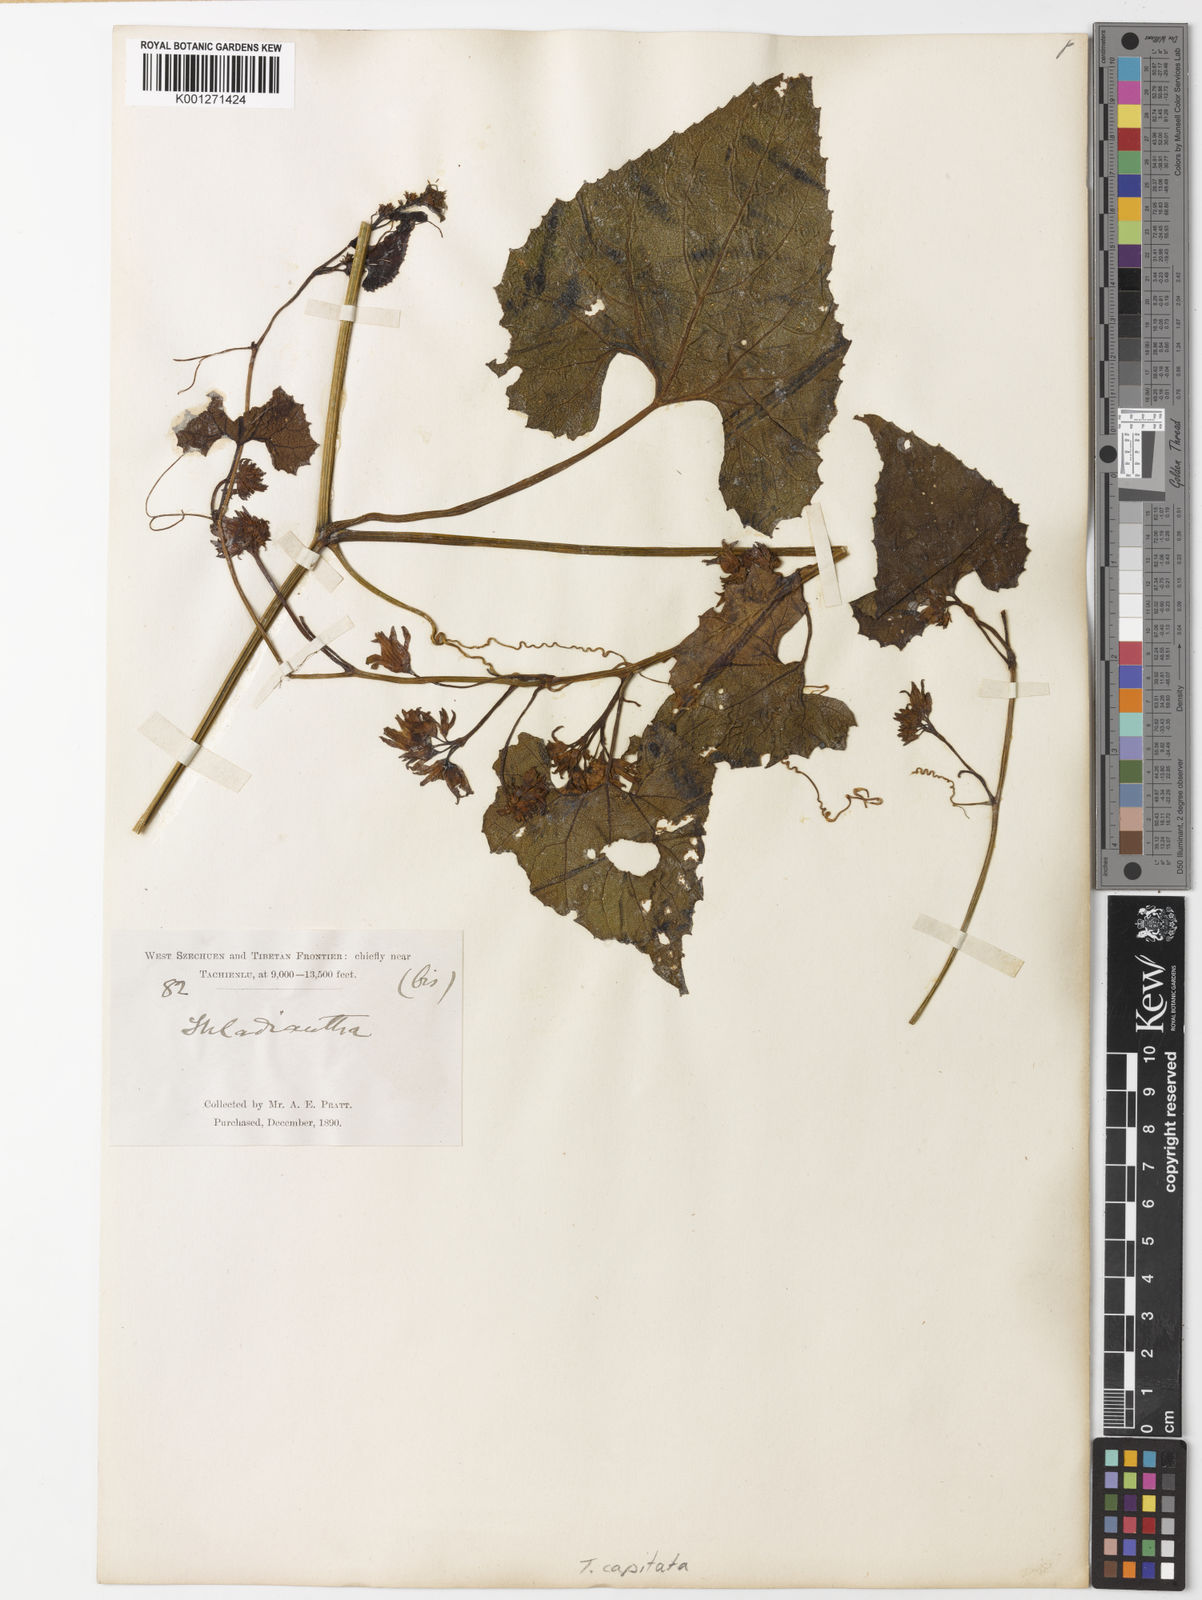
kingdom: Plantae
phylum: Tracheophyta
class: Magnoliopsida
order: Cucurbitales
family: Cucurbitaceae
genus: Thladiantha
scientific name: Thladiantha capitata
